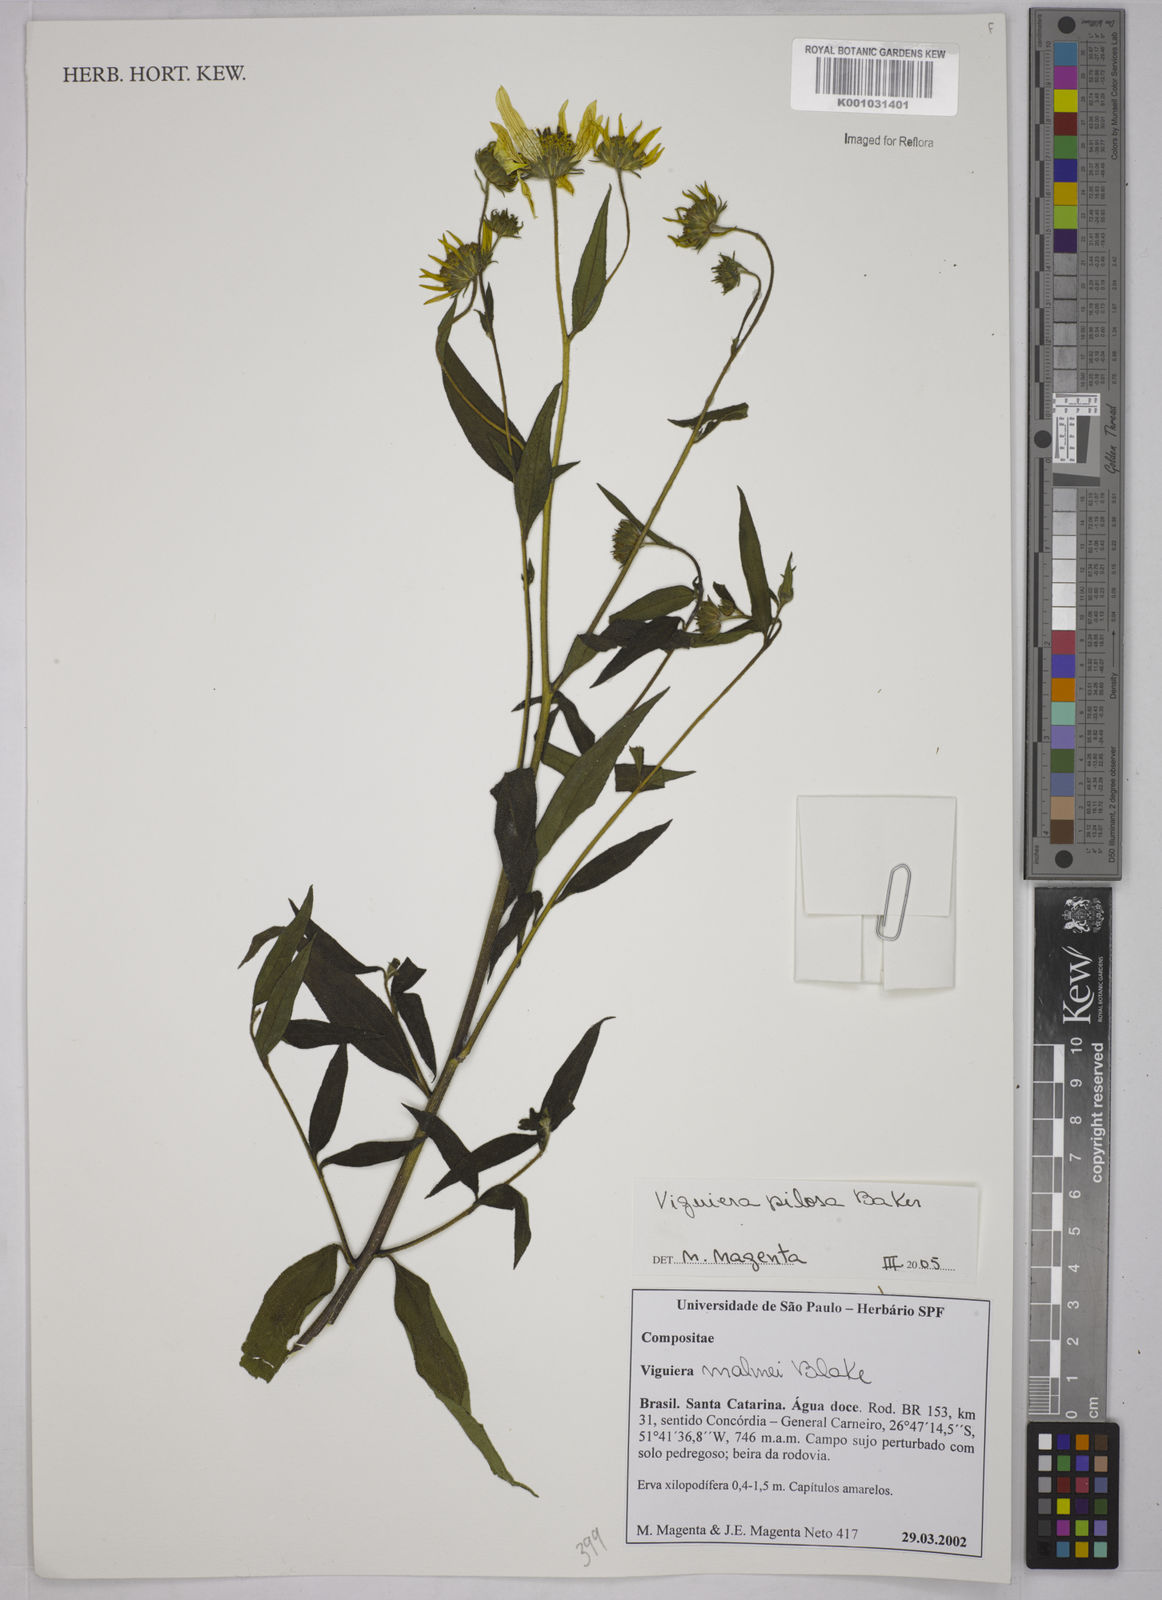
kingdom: Plantae
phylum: Tracheophyta
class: Magnoliopsida
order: Asterales
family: Asteraceae
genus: Aldama
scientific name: Aldama pilosa
